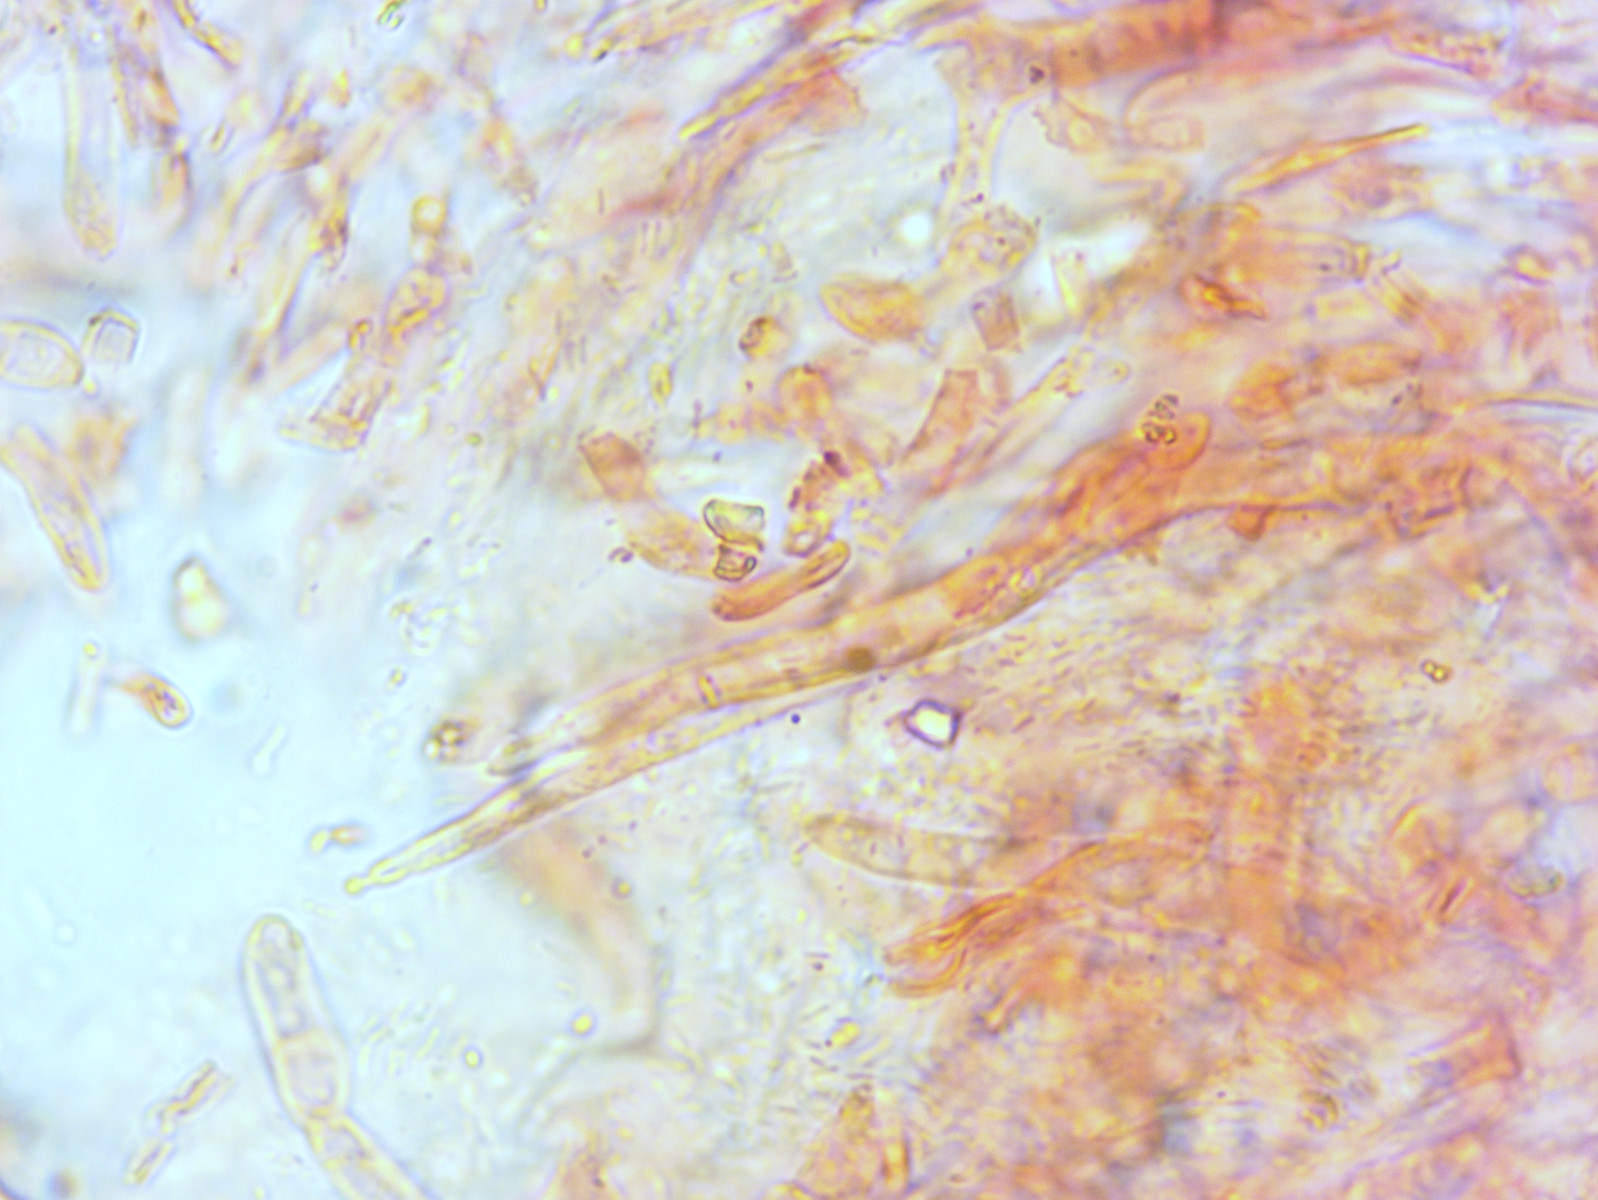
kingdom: Fungi
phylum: Basidiomycota
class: Agaricomycetes
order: Russulales
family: Russulaceae
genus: Russula
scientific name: Russula pectinata
